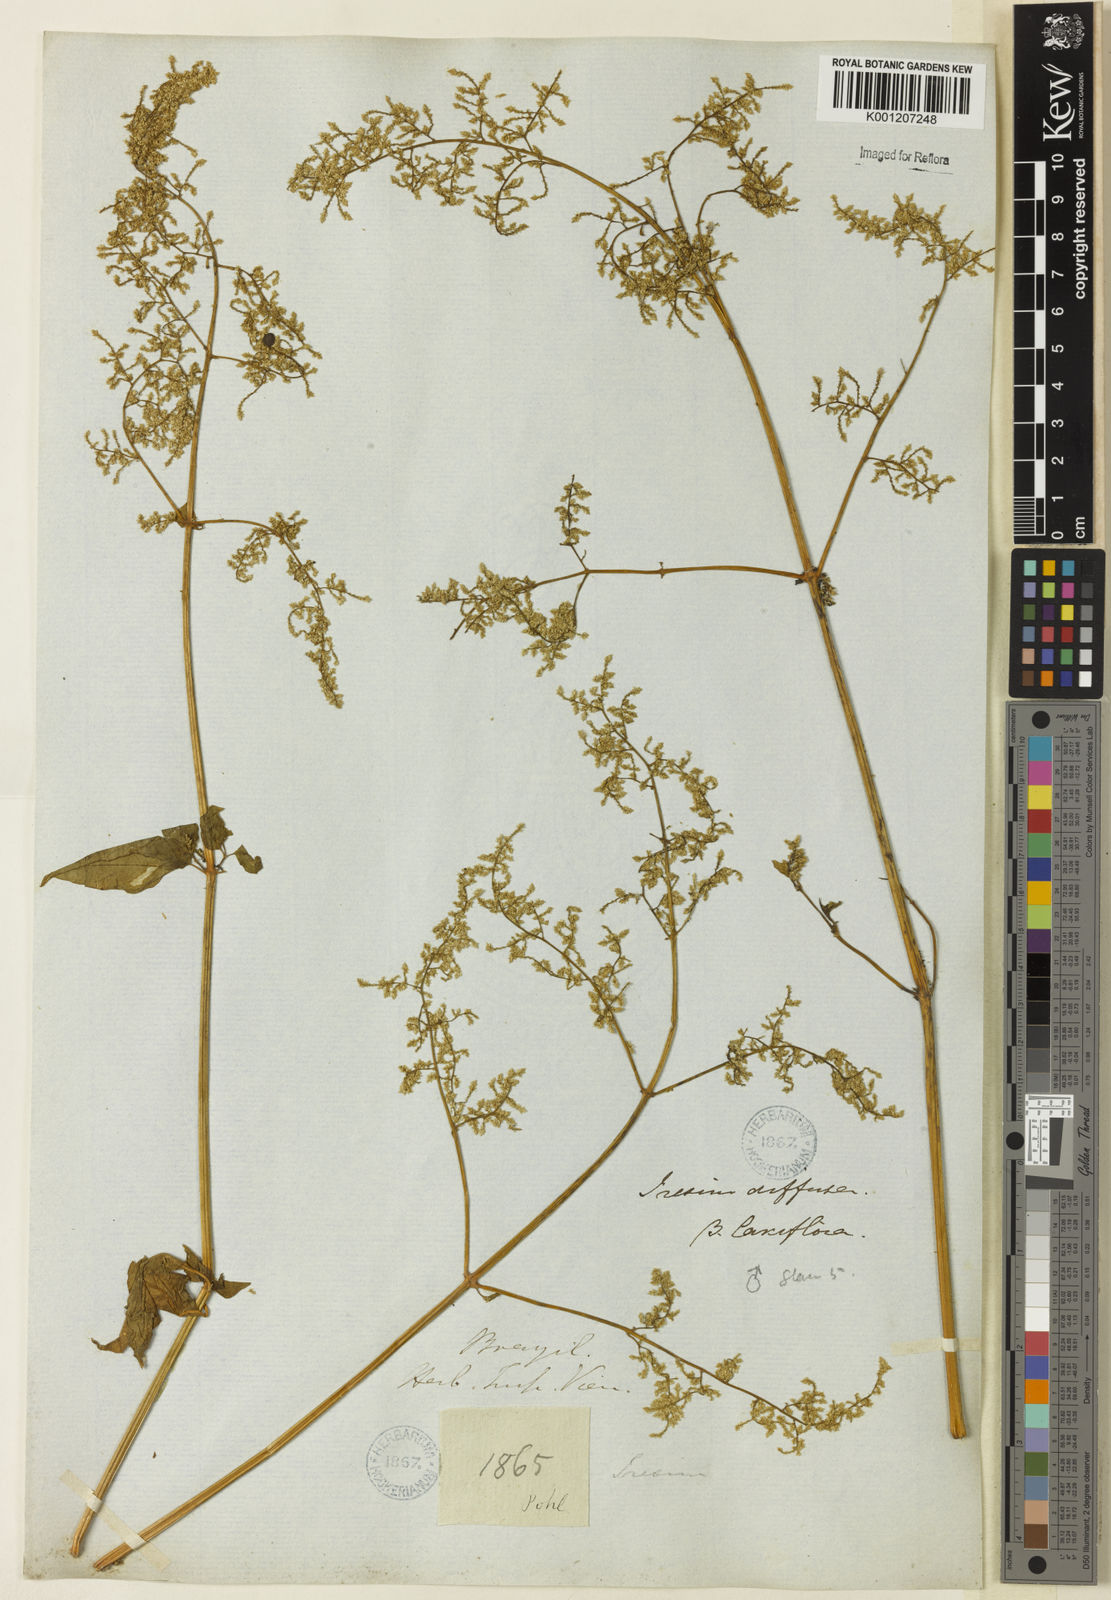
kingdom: Plantae
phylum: Tracheophyta
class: Magnoliopsida
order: Caryophyllales
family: Amaranthaceae
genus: Iresine
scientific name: Iresine rhizomatosa
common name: Juda's-bush
